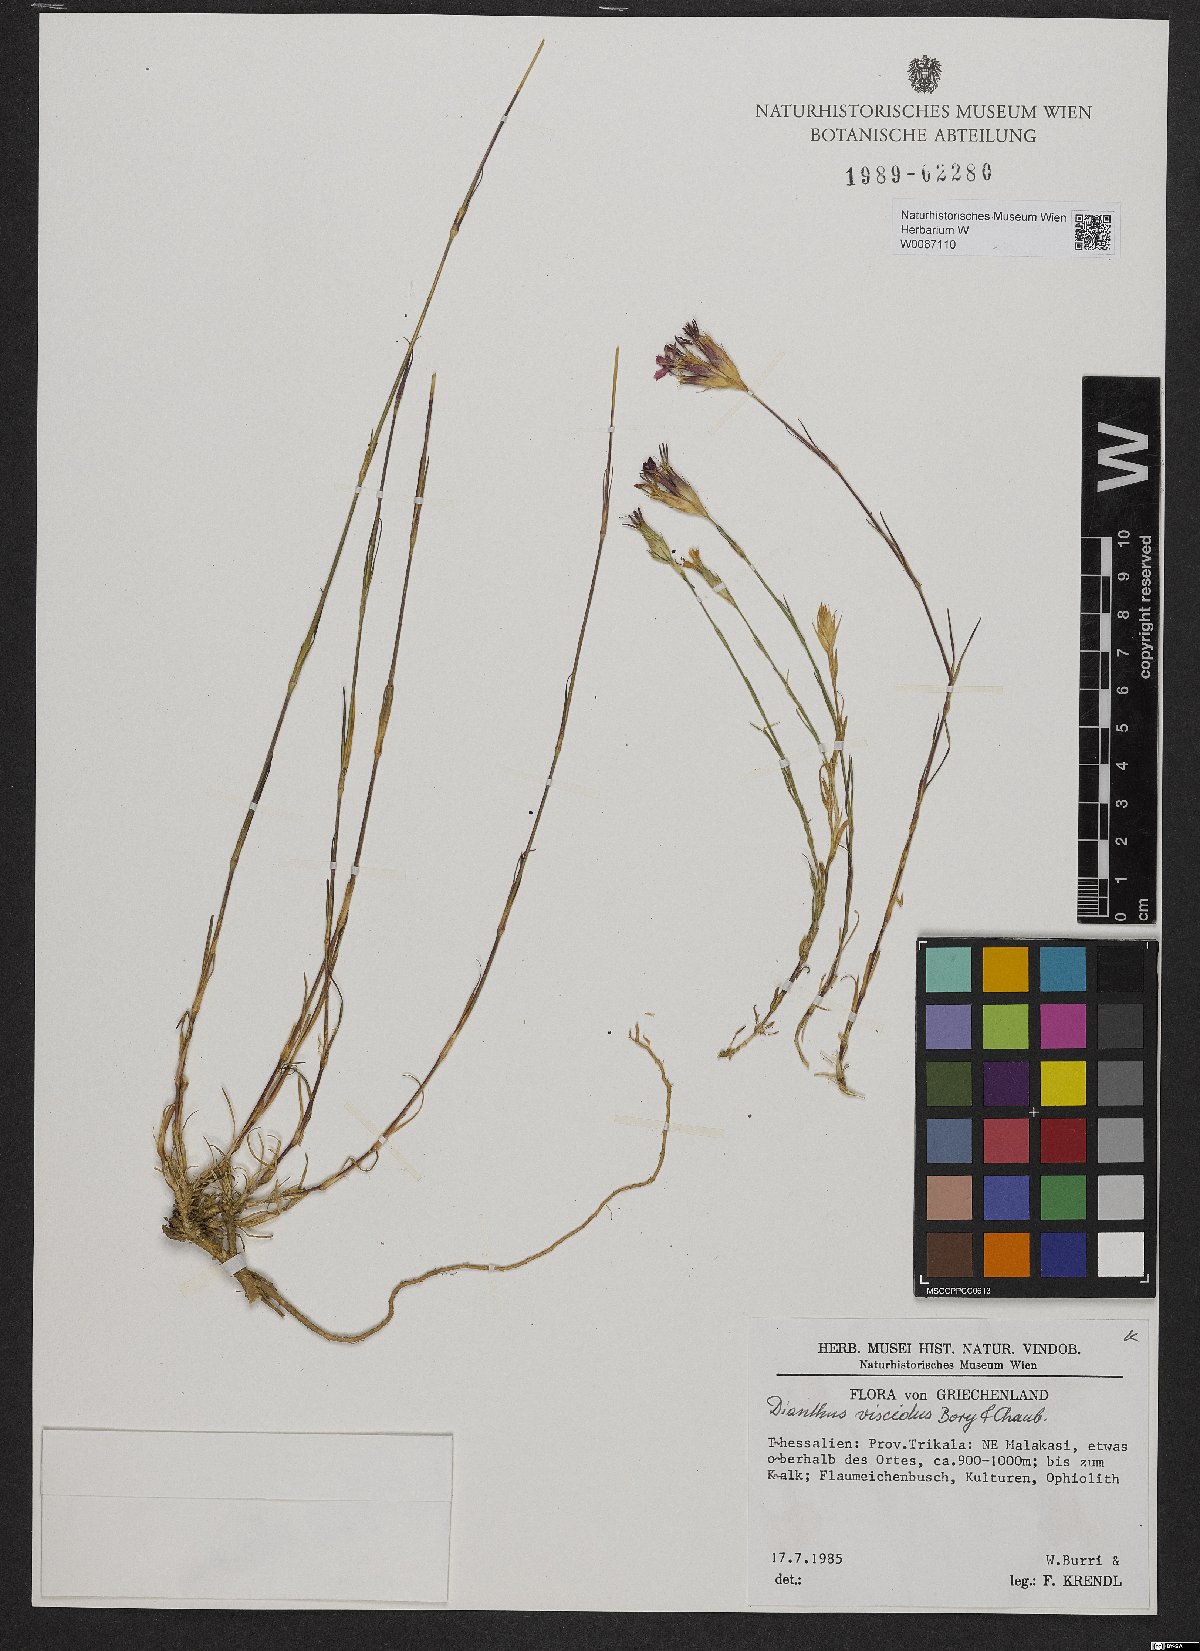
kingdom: Plantae
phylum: Tracheophyta
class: Magnoliopsida
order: Caryophyllales
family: Caryophyllaceae
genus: Dianthus
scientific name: Dianthus viscidus
